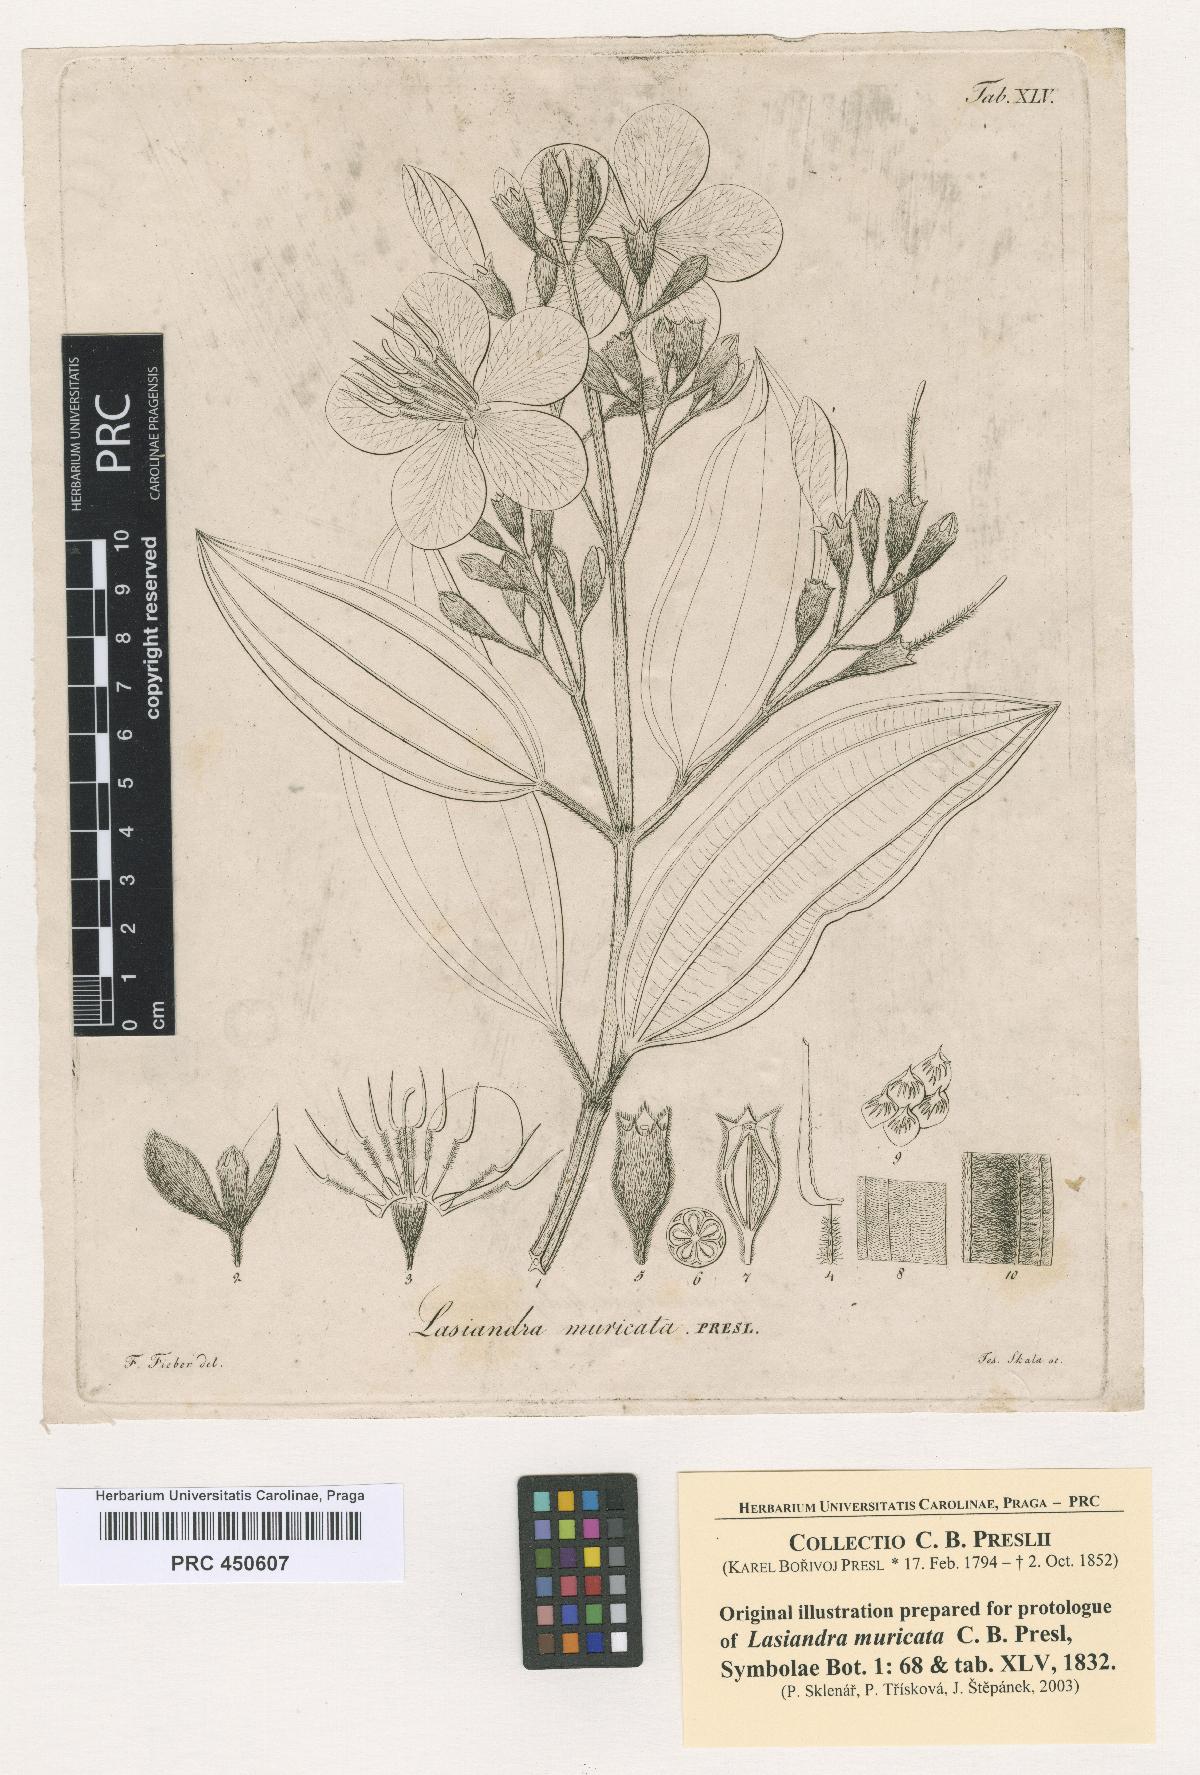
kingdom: Plantae
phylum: Tracheophyta
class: Magnoliopsida
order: Myrtales
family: Melastomataceae
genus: Pleroma
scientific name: Pleroma estrellense
